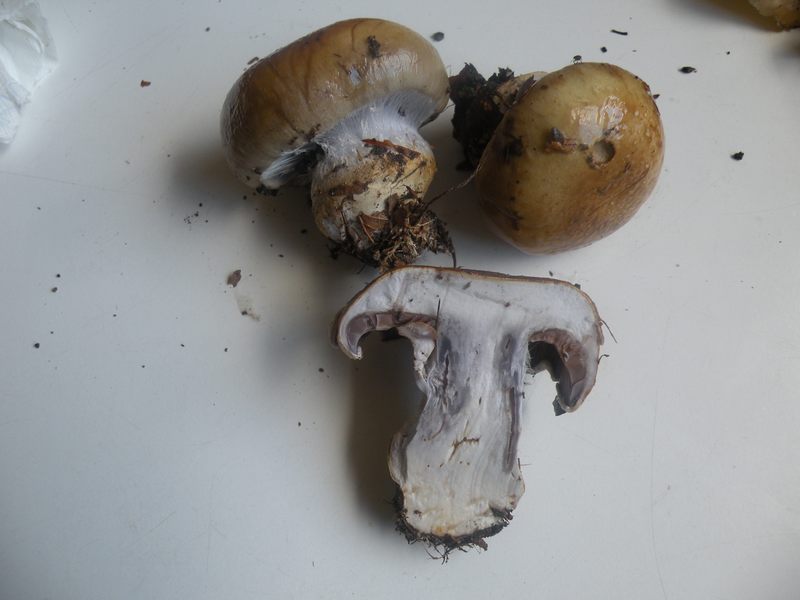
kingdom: Fungi
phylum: Basidiomycota
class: Agaricomycetes
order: Agaricales
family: Cortinariaceae
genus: Cortinarius
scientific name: Cortinarius anserinus
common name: bøge-slørhat
